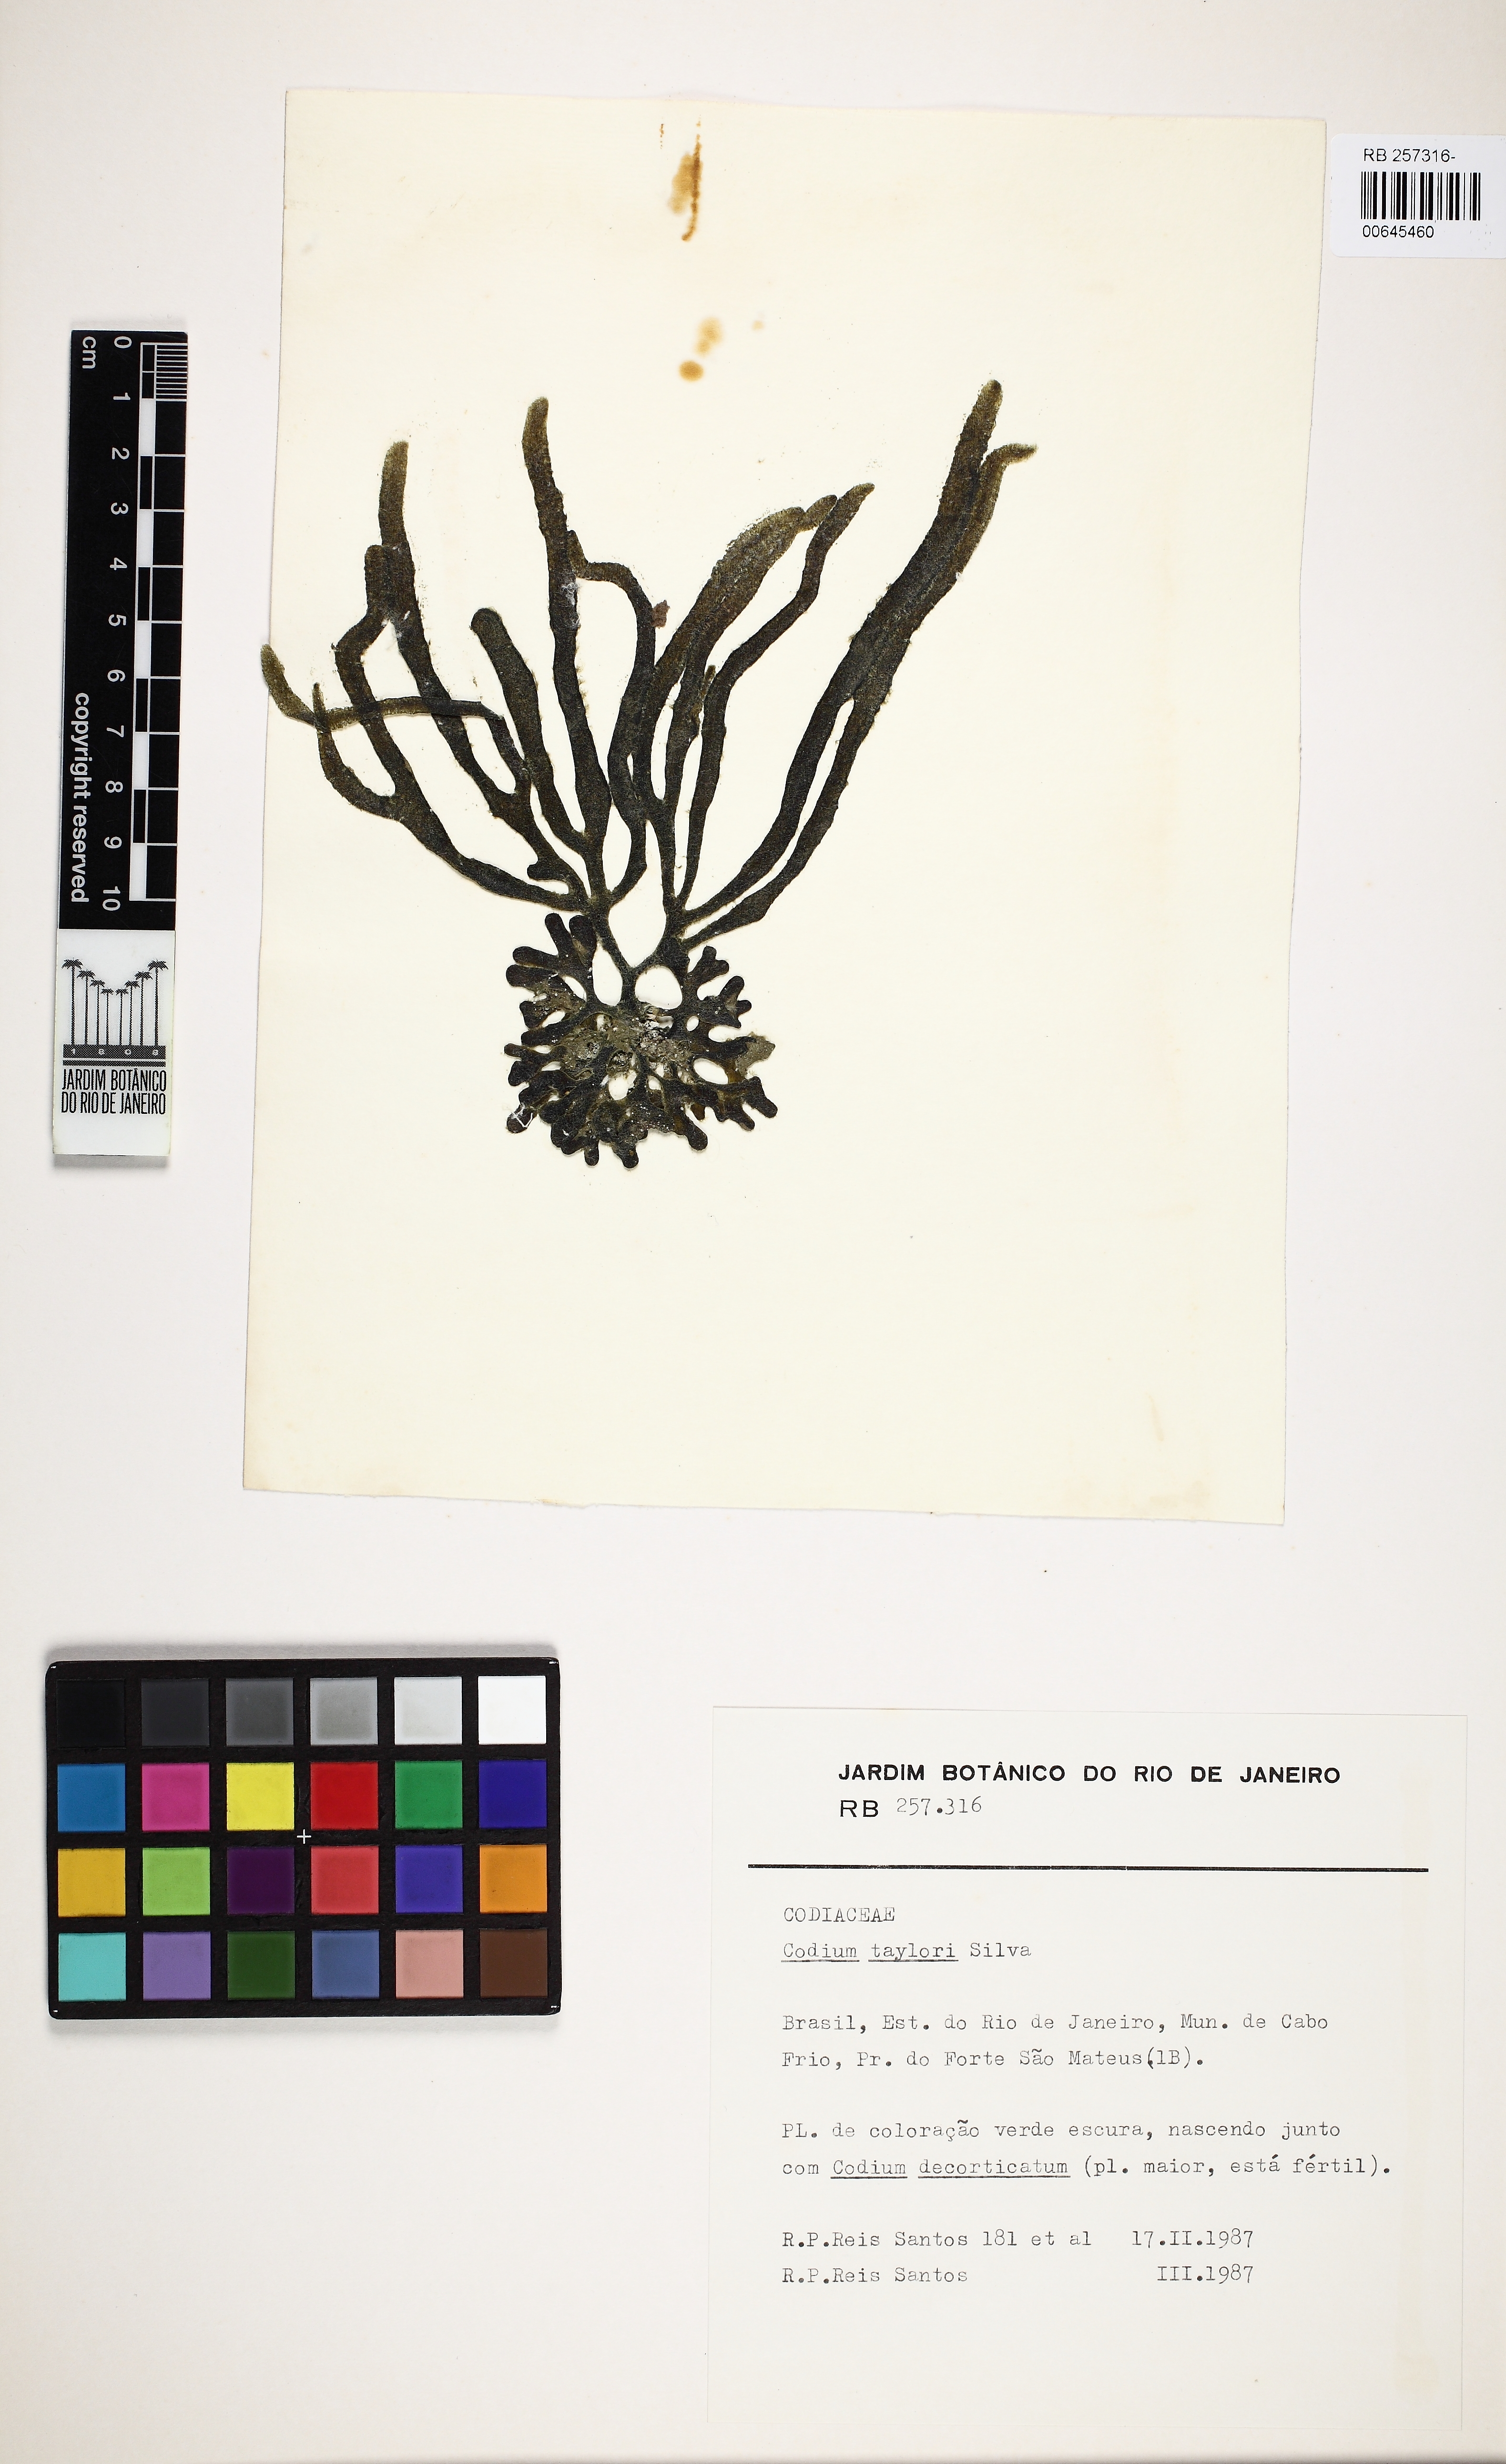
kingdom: Plantae
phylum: Chlorophyta
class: Ulvophyceae
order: Bryopsidales
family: Codiaceae
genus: Codium
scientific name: Codium taylorii
